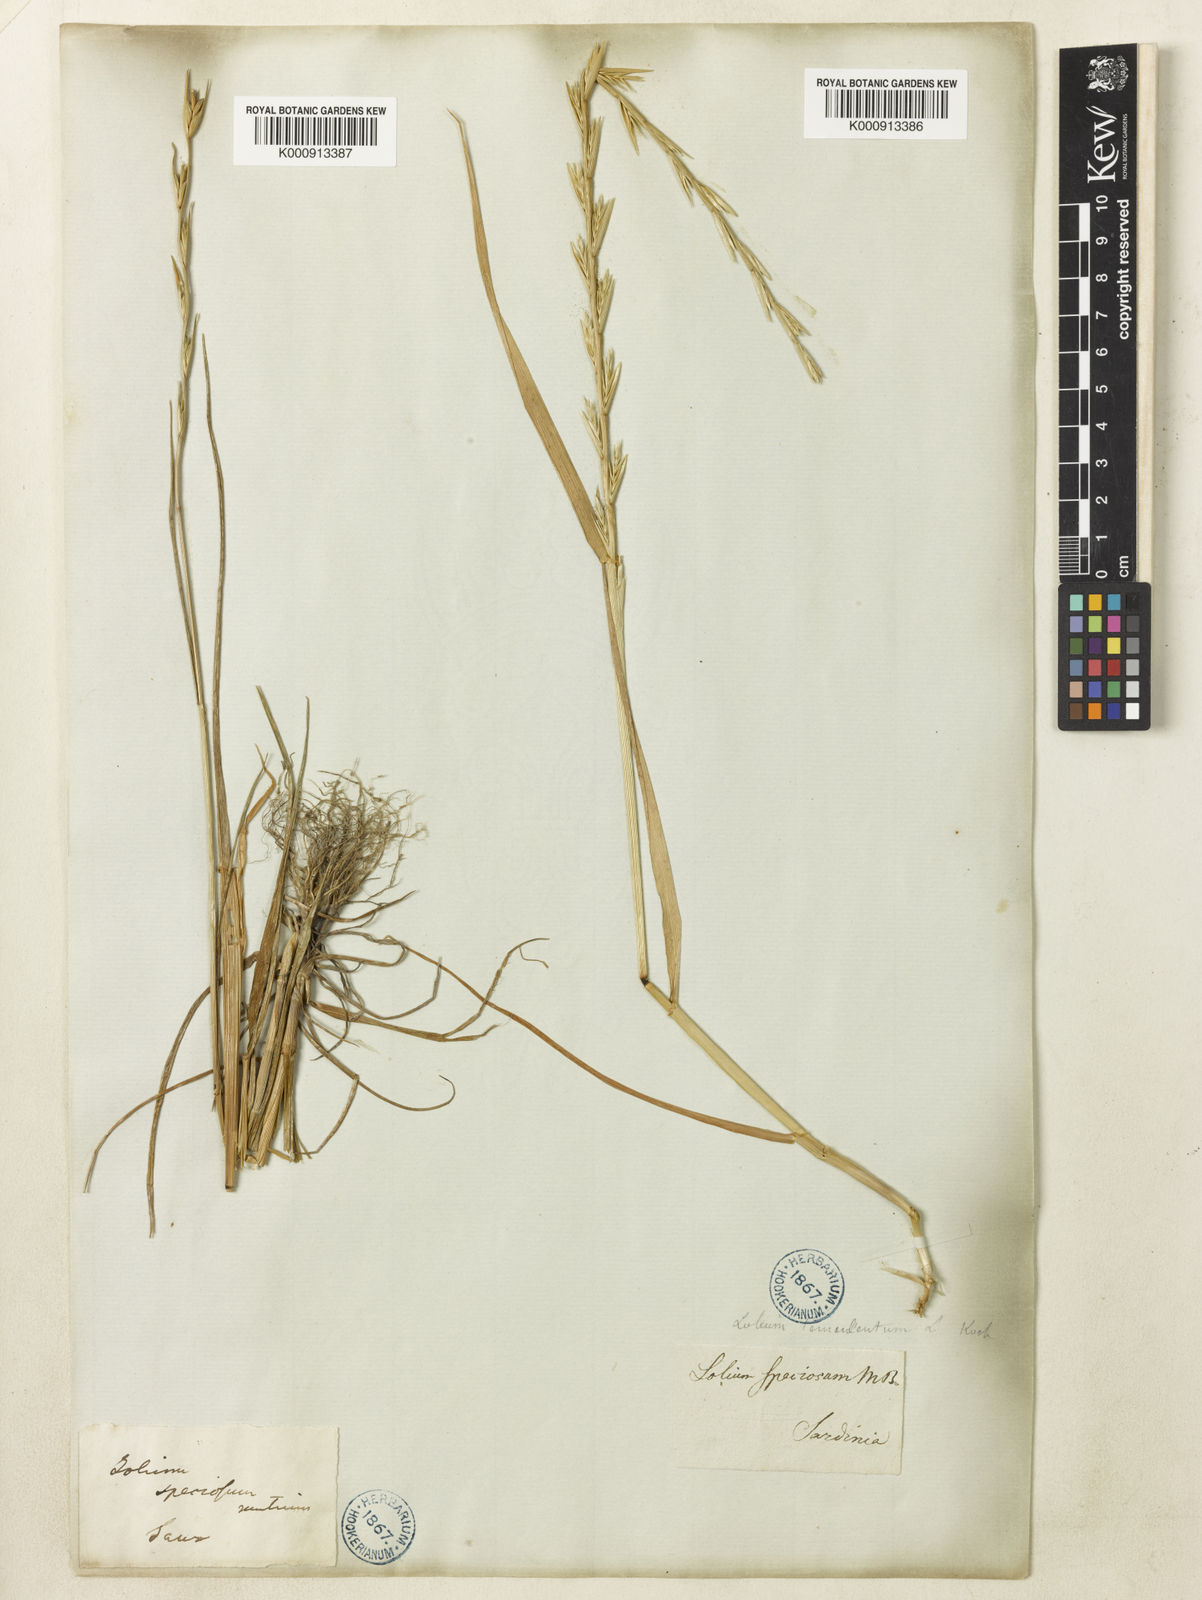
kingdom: Plantae
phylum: Tracheophyta
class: Liliopsida
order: Poales
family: Poaceae
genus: Lolium
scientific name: Lolium temulentum
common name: Darnel
